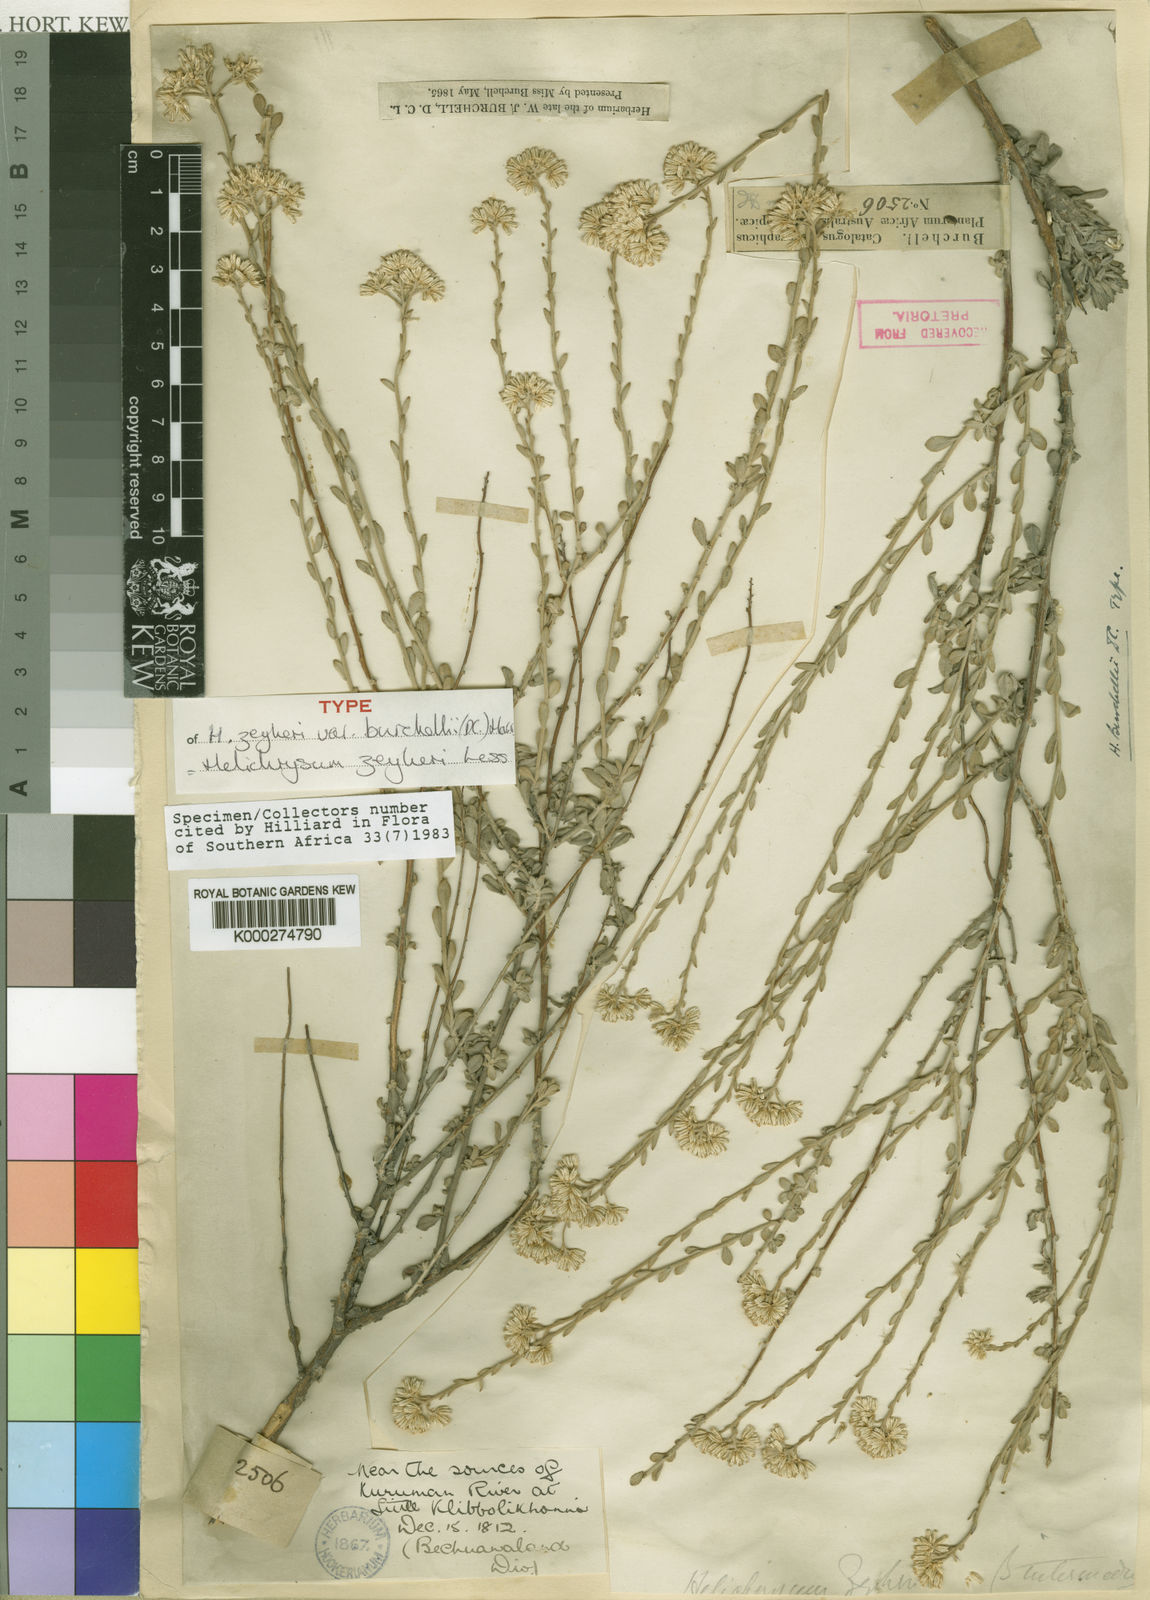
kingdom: Plantae
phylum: Tracheophyta
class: Magnoliopsida
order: Asterales
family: Asteraceae
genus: Helichrysum
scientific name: Helichrysum zeyheri
